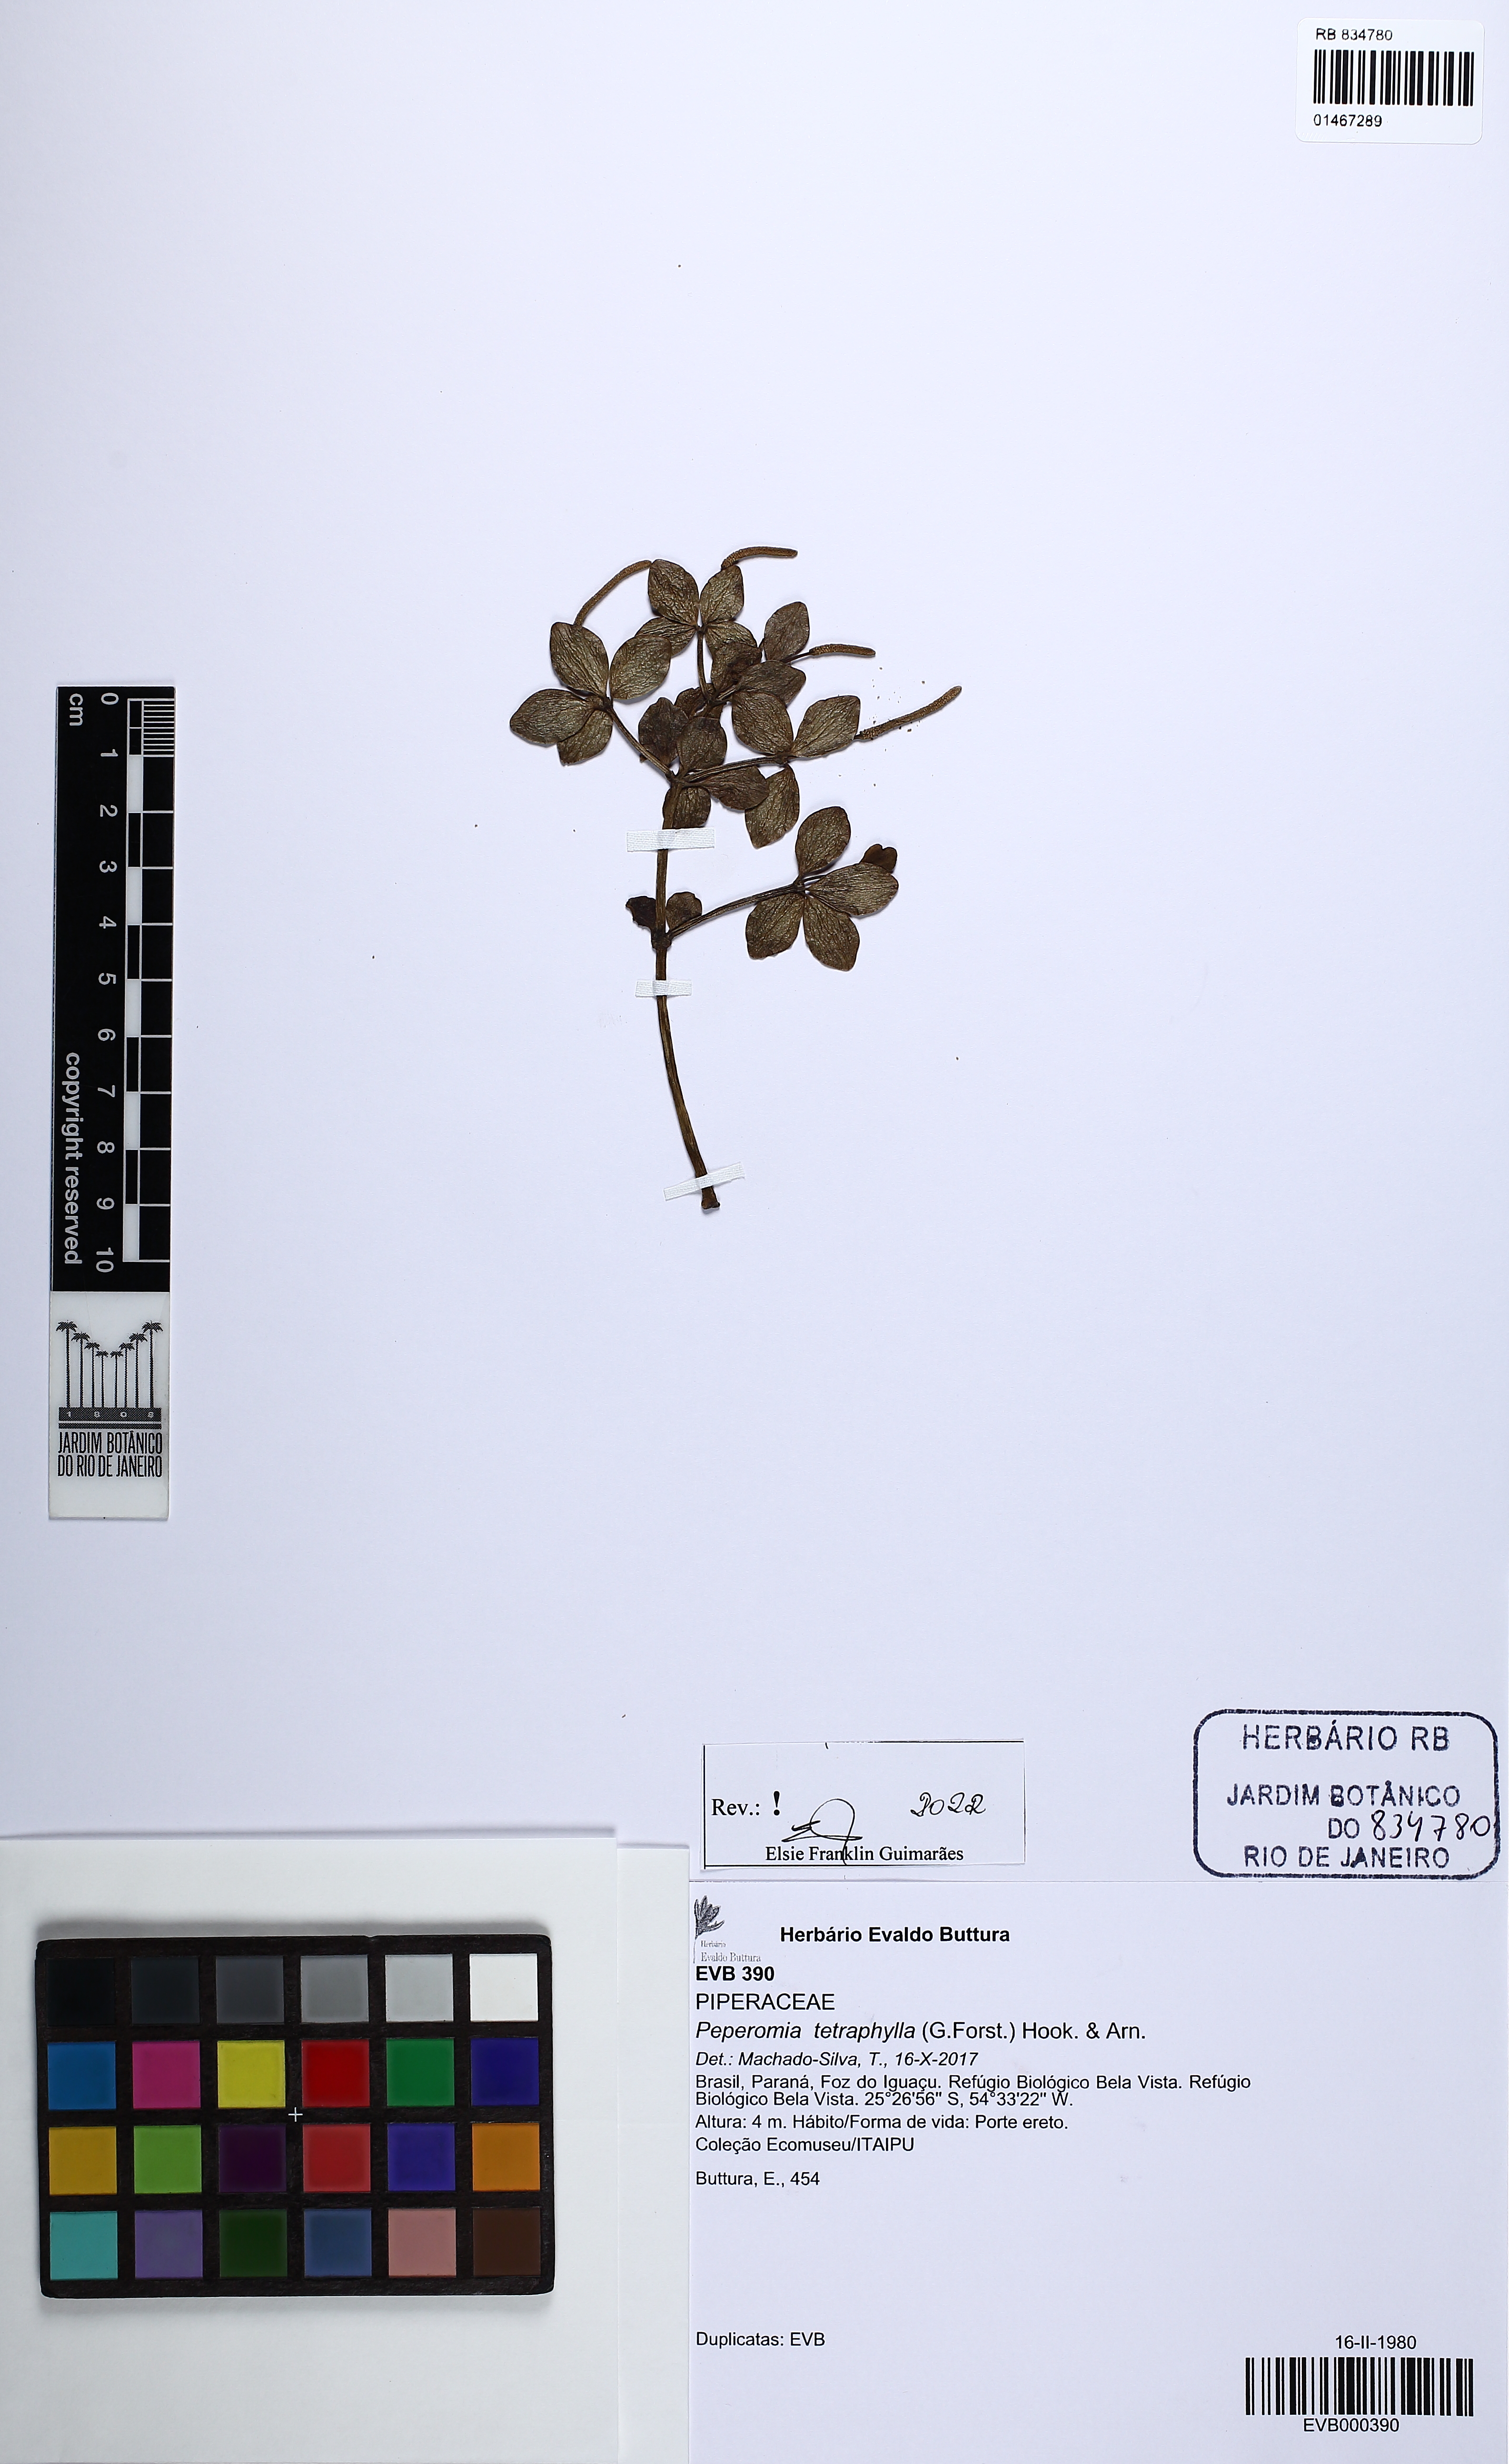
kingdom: Plantae
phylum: Tracheophyta
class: Magnoliopsida
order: Piperales
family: Piperaceae
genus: Peperomia
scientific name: Peperomia tetraphylla
